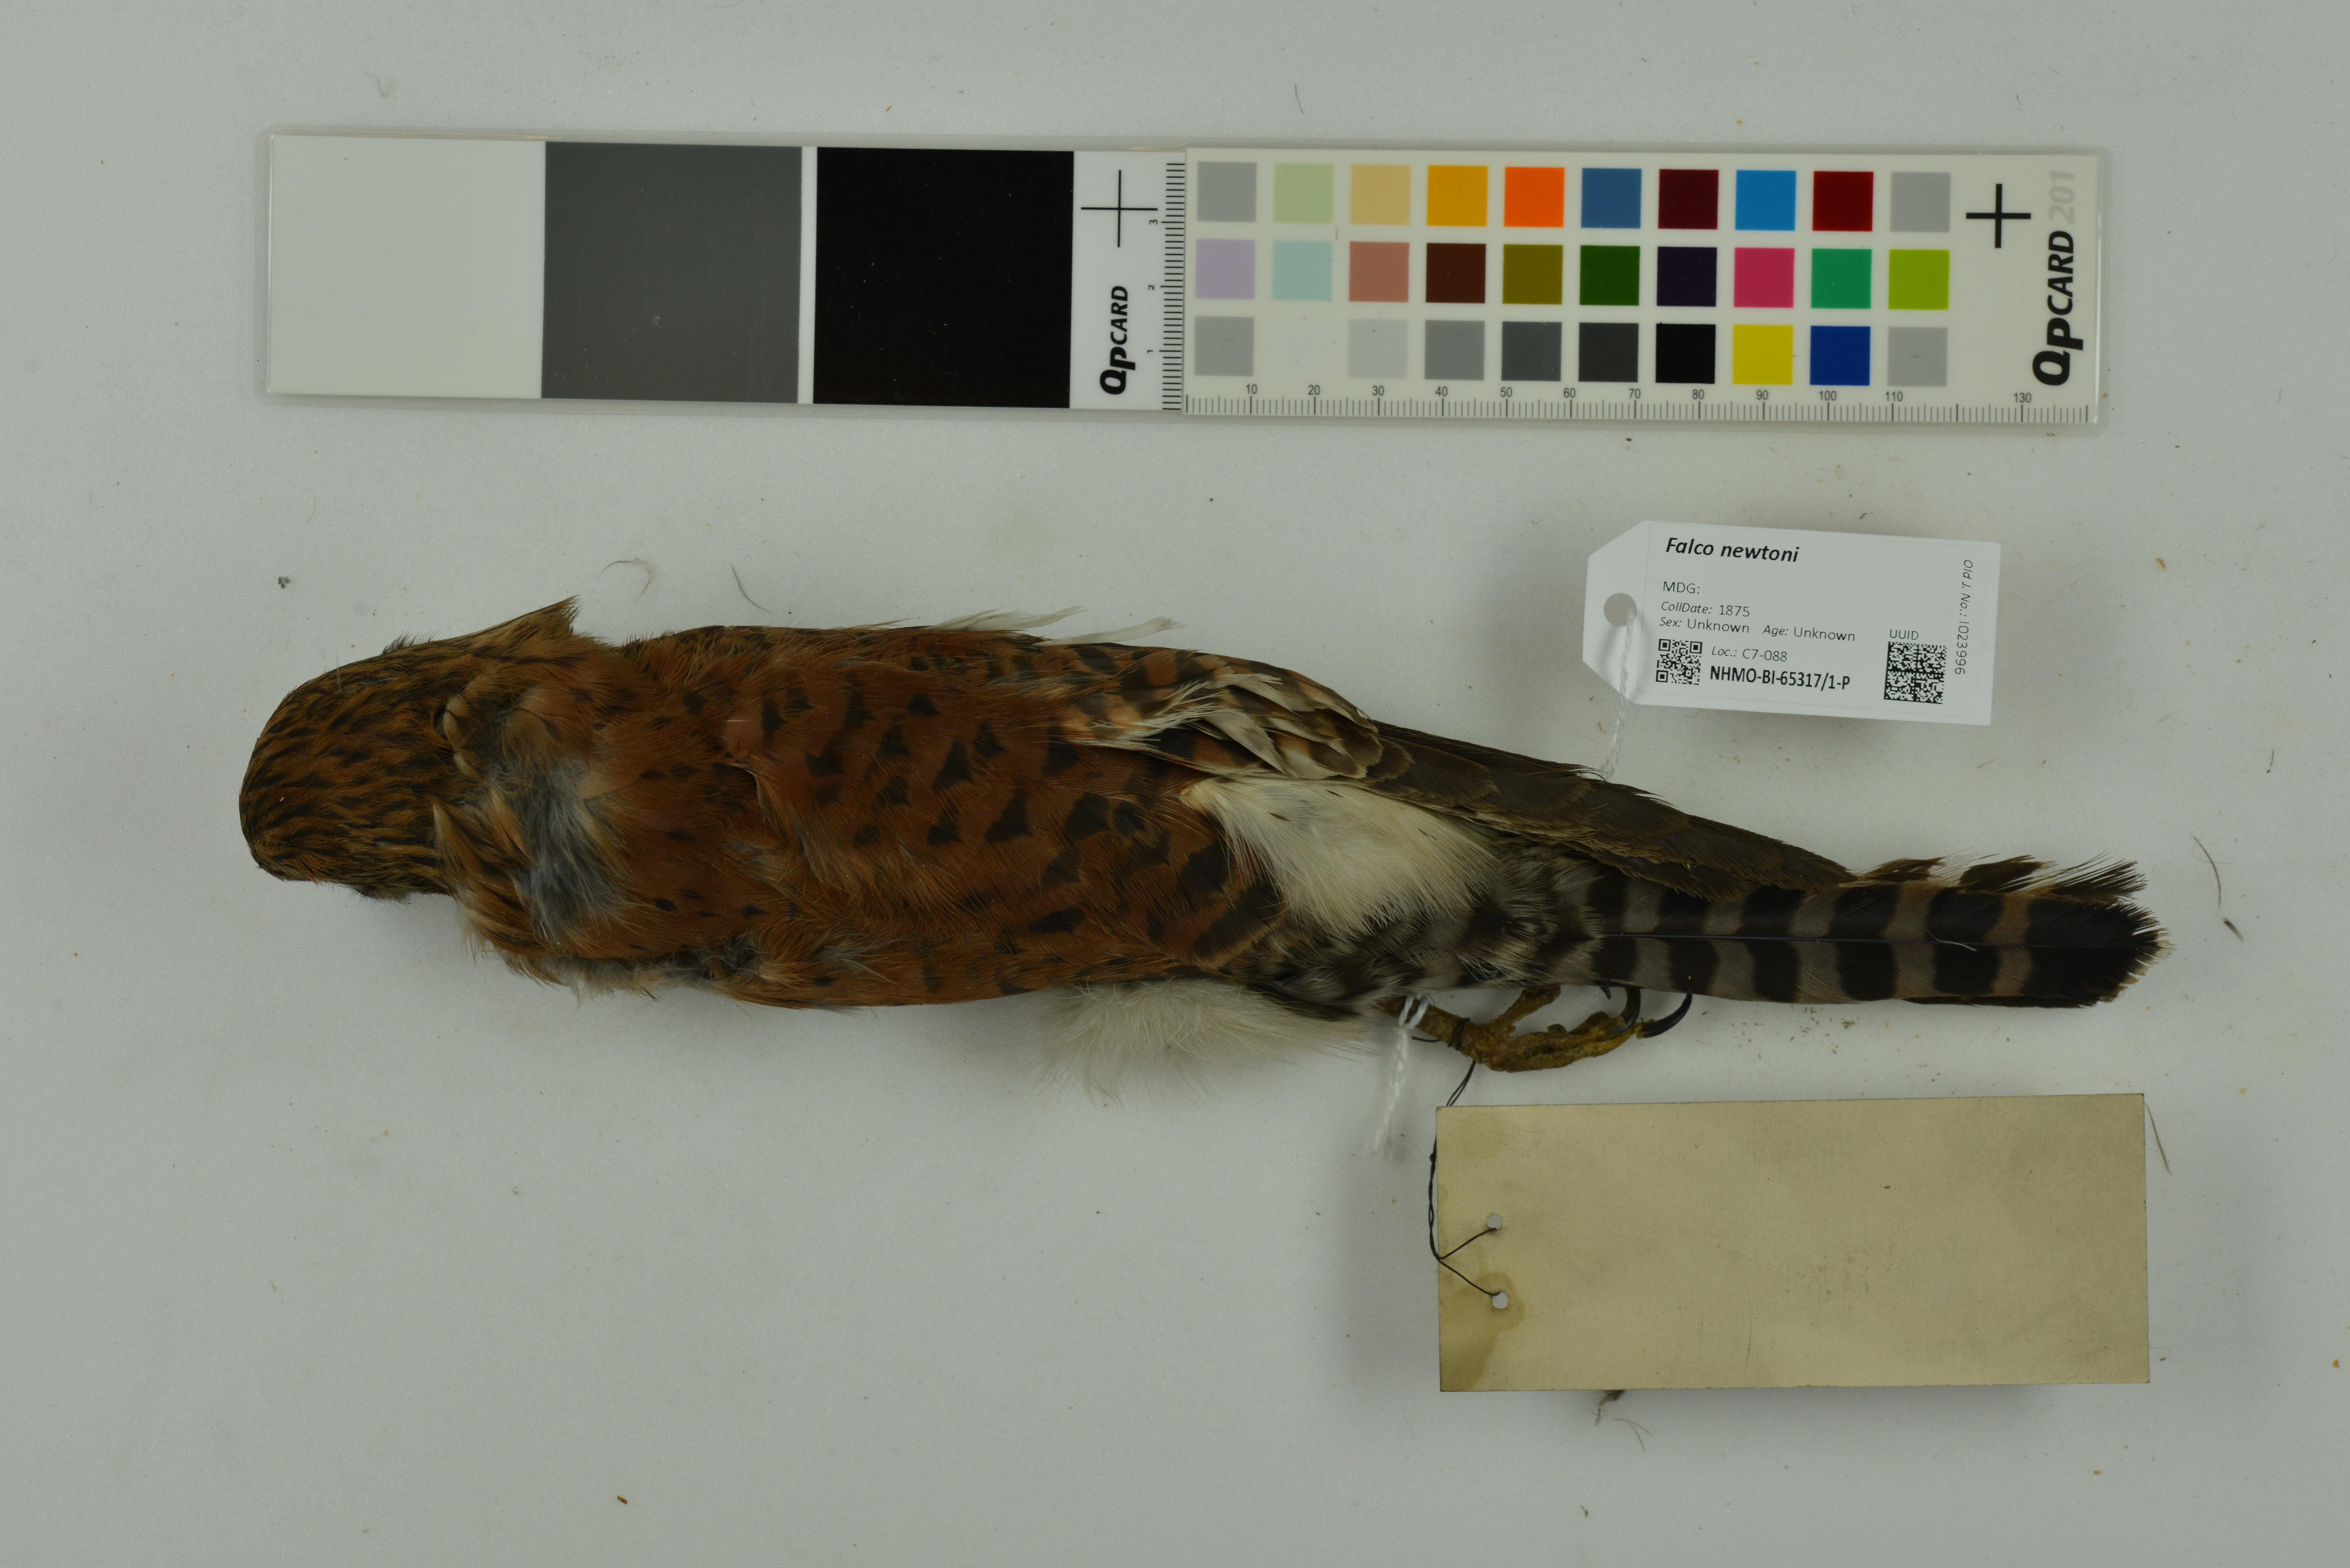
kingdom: Animalia
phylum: Chordata
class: Aves
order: Falconiformes
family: Falconidae
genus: Falco
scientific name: Falco newtoni
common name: Malagasy kestrel
